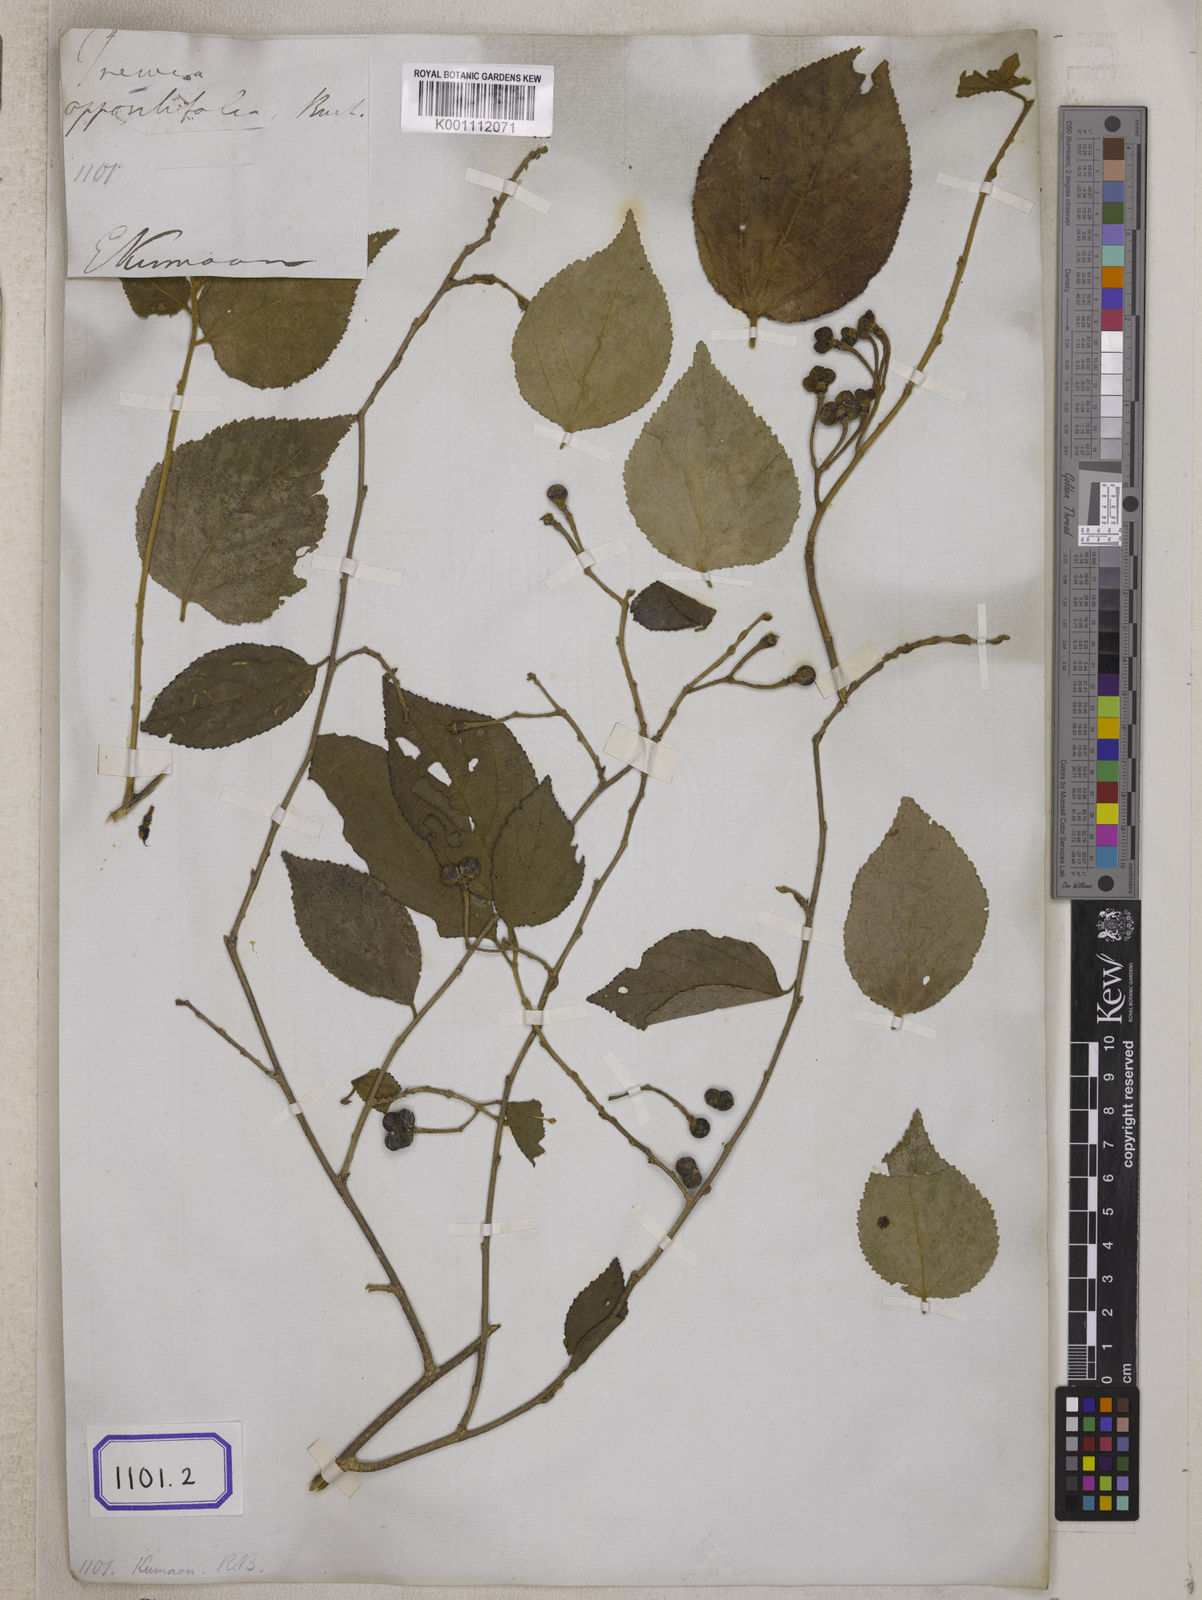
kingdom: Plantae
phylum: Tracheophyta
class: Magnoliopsida
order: Malvales
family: Malvaceae
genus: Grewia
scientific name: Grewia oppositifolia
